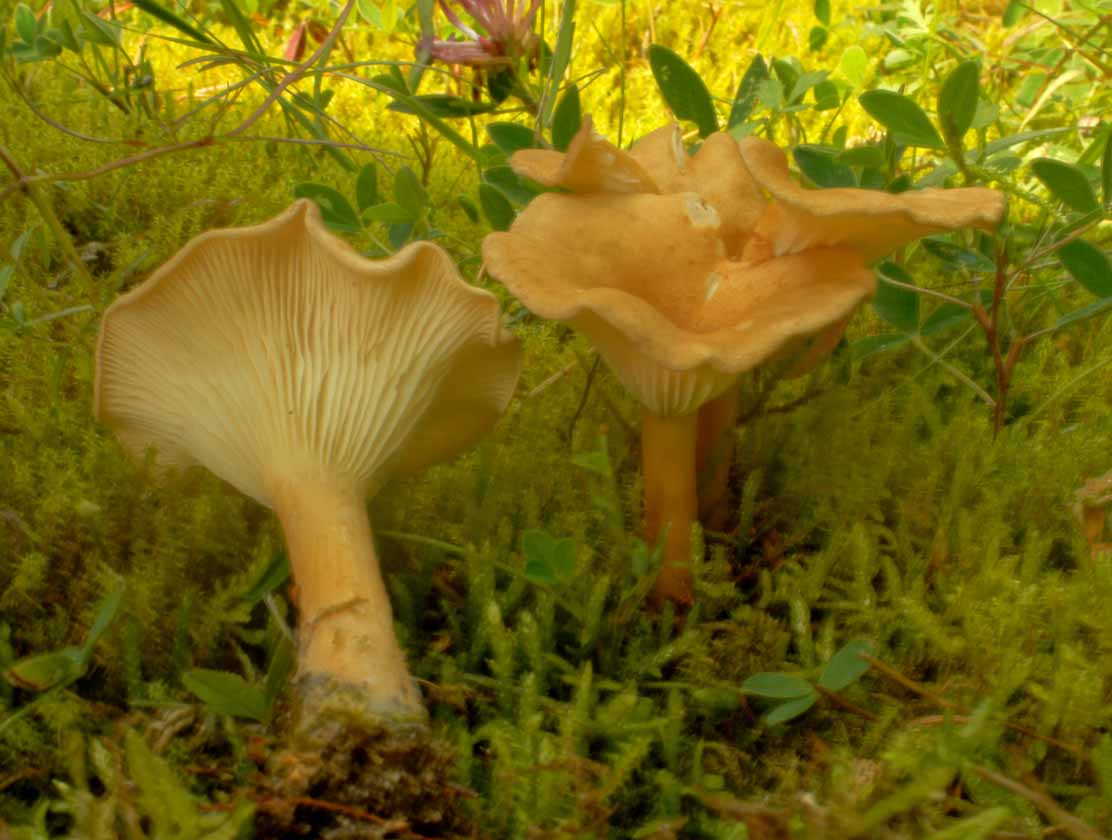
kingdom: Fungi
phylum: Basidiomycota
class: Agaricomycetes
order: Agaricales
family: Tricholomataceae
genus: Clitocybe
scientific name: Clitocybe costata
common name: brunstokket tragthat
